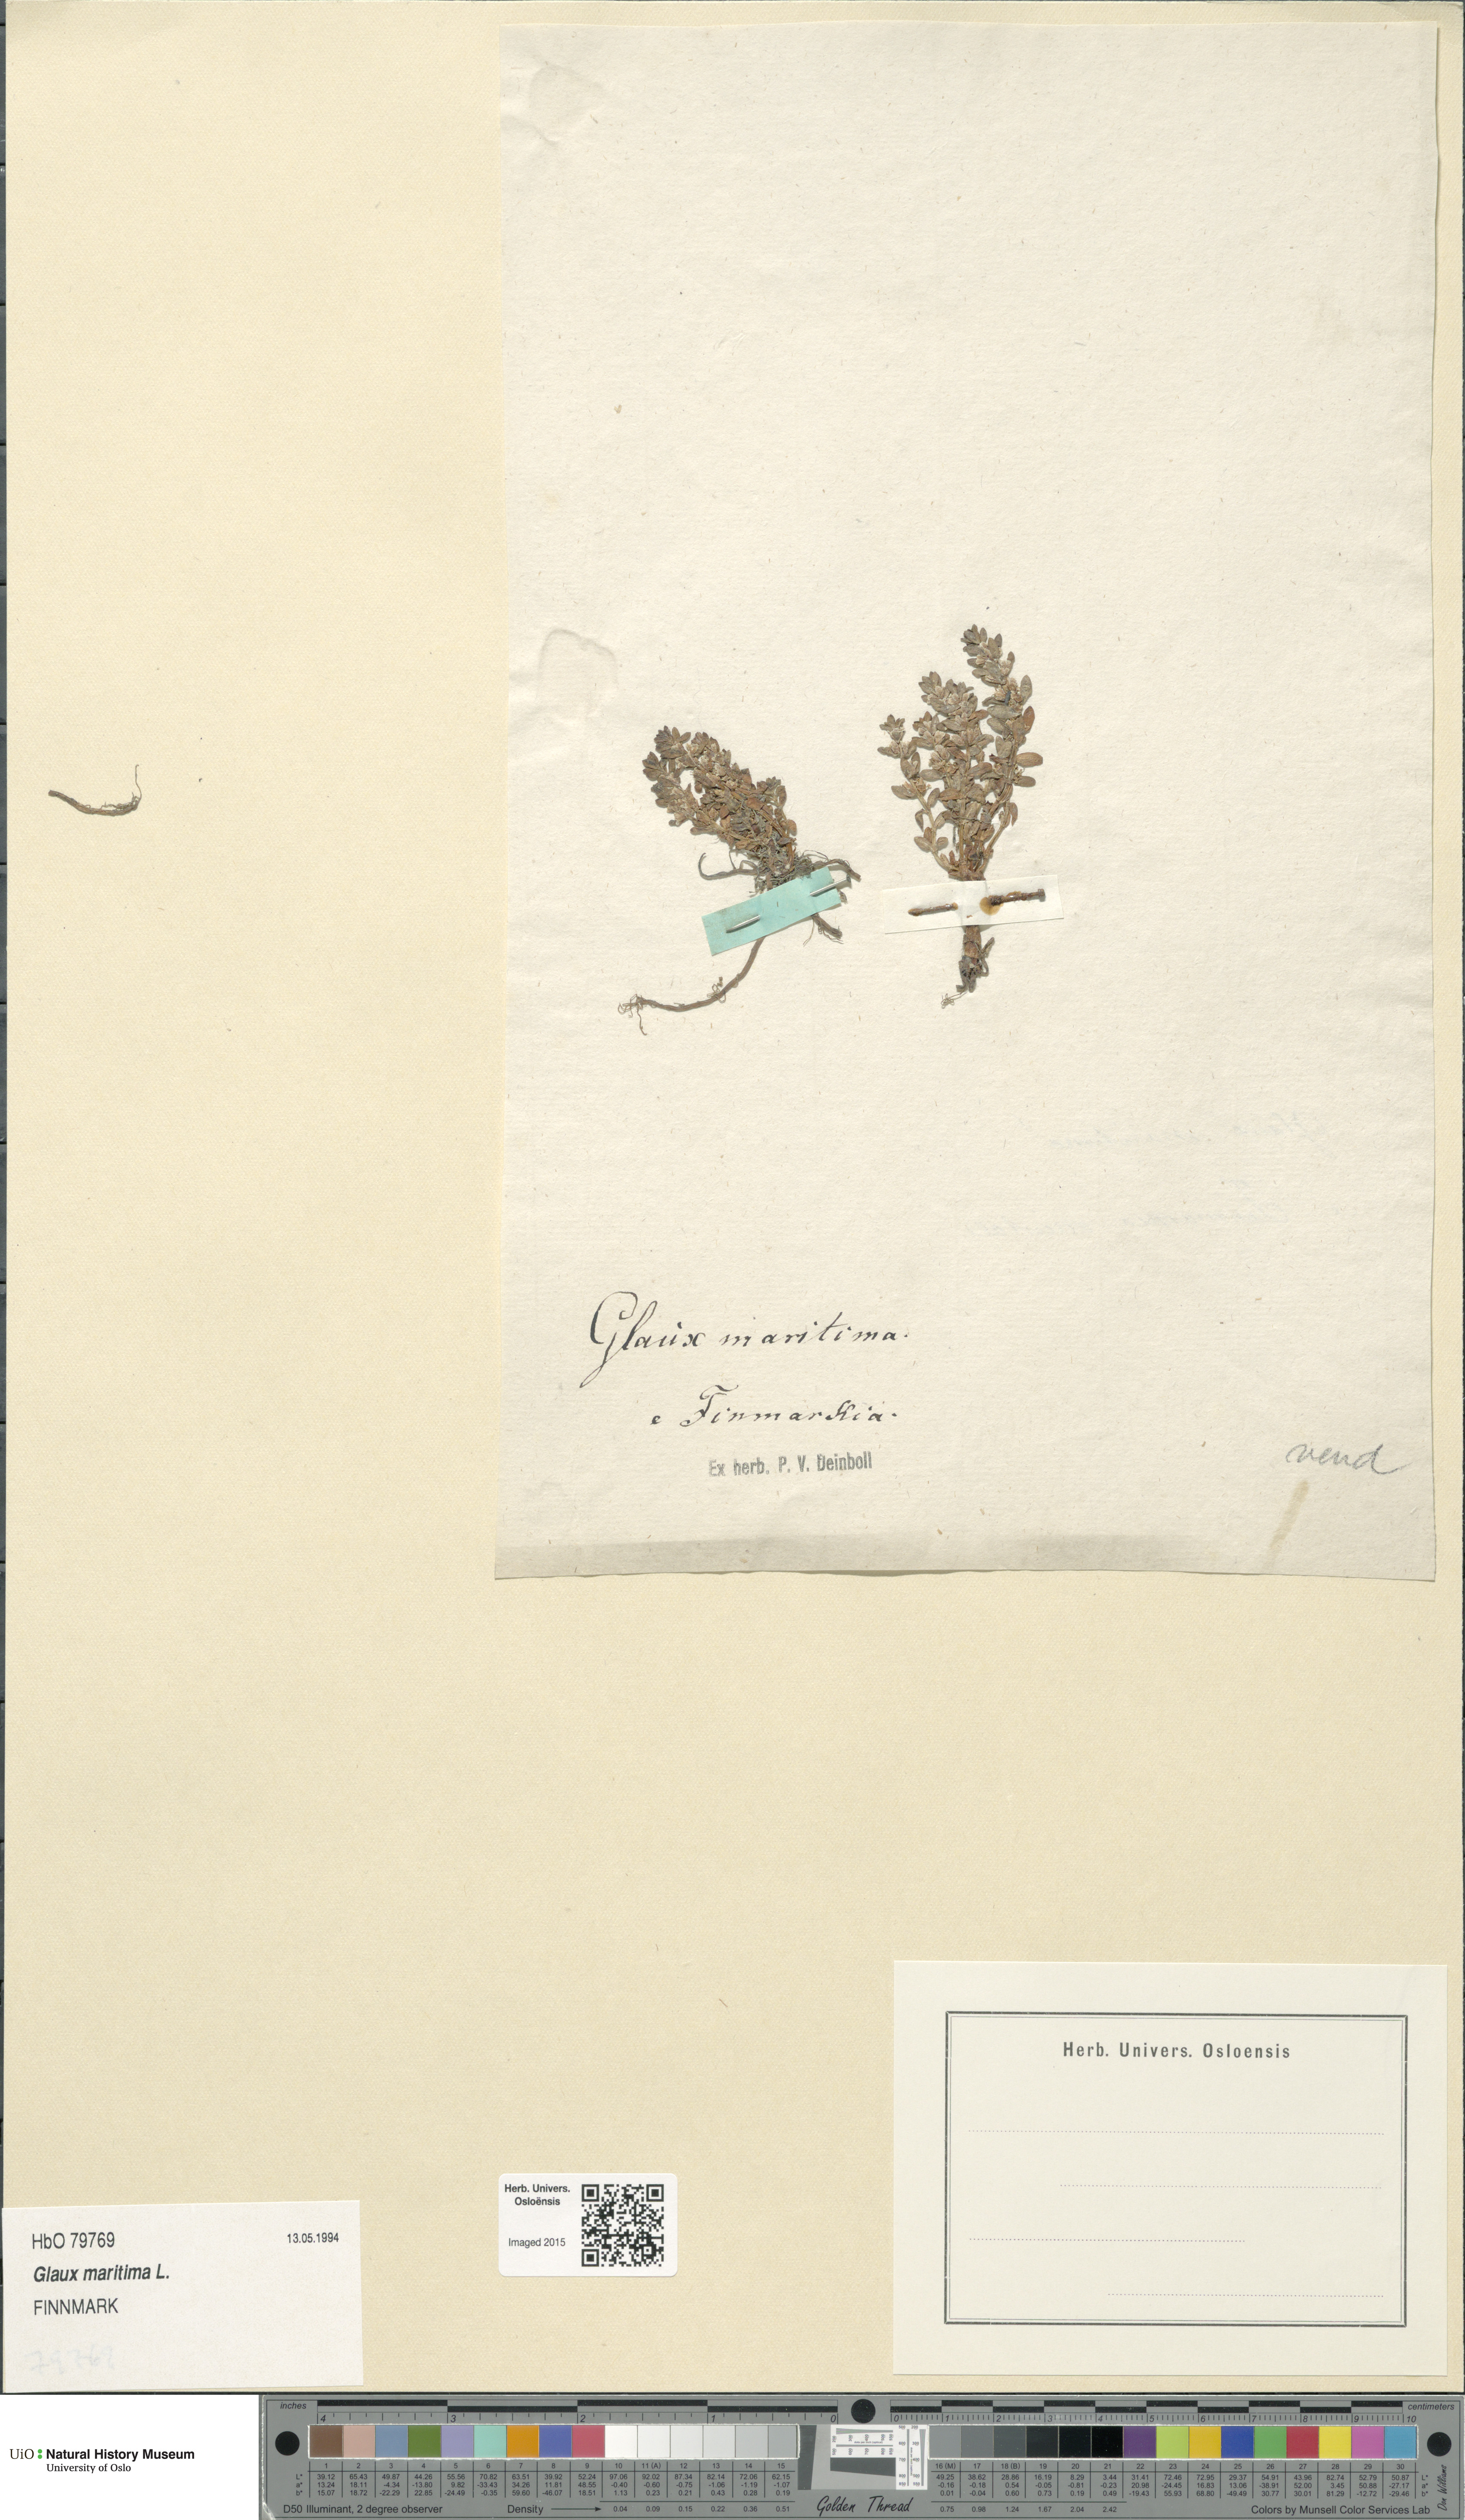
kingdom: Plantae
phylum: Tracheophyta
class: Magnoliopsida
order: Ericales
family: Primulaceae
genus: Lysimachia
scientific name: Lysimachia maritima
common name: Sea milkwort
